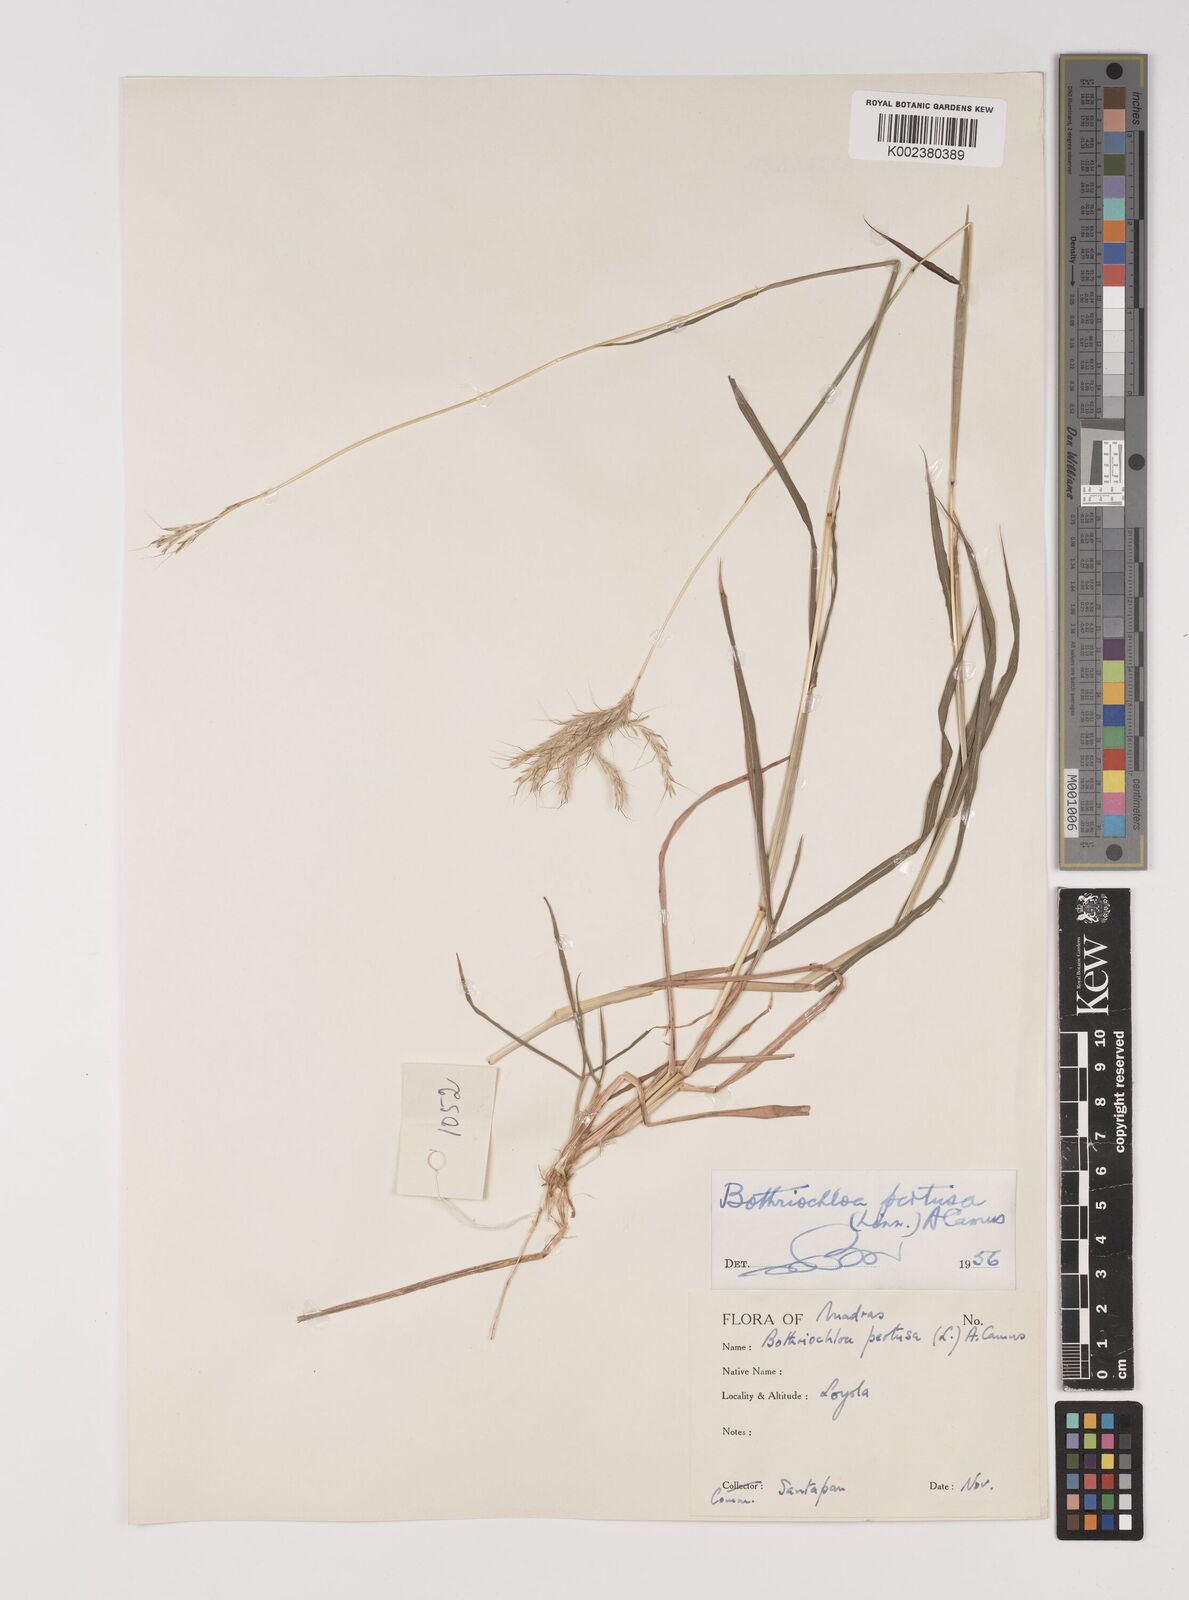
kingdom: Plantae
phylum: Tracheophyta
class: Liliopsida
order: Poales
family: Poaceae
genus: Bothriochloa
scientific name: Bothriochloa pertusa
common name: Pitted beardgrass
